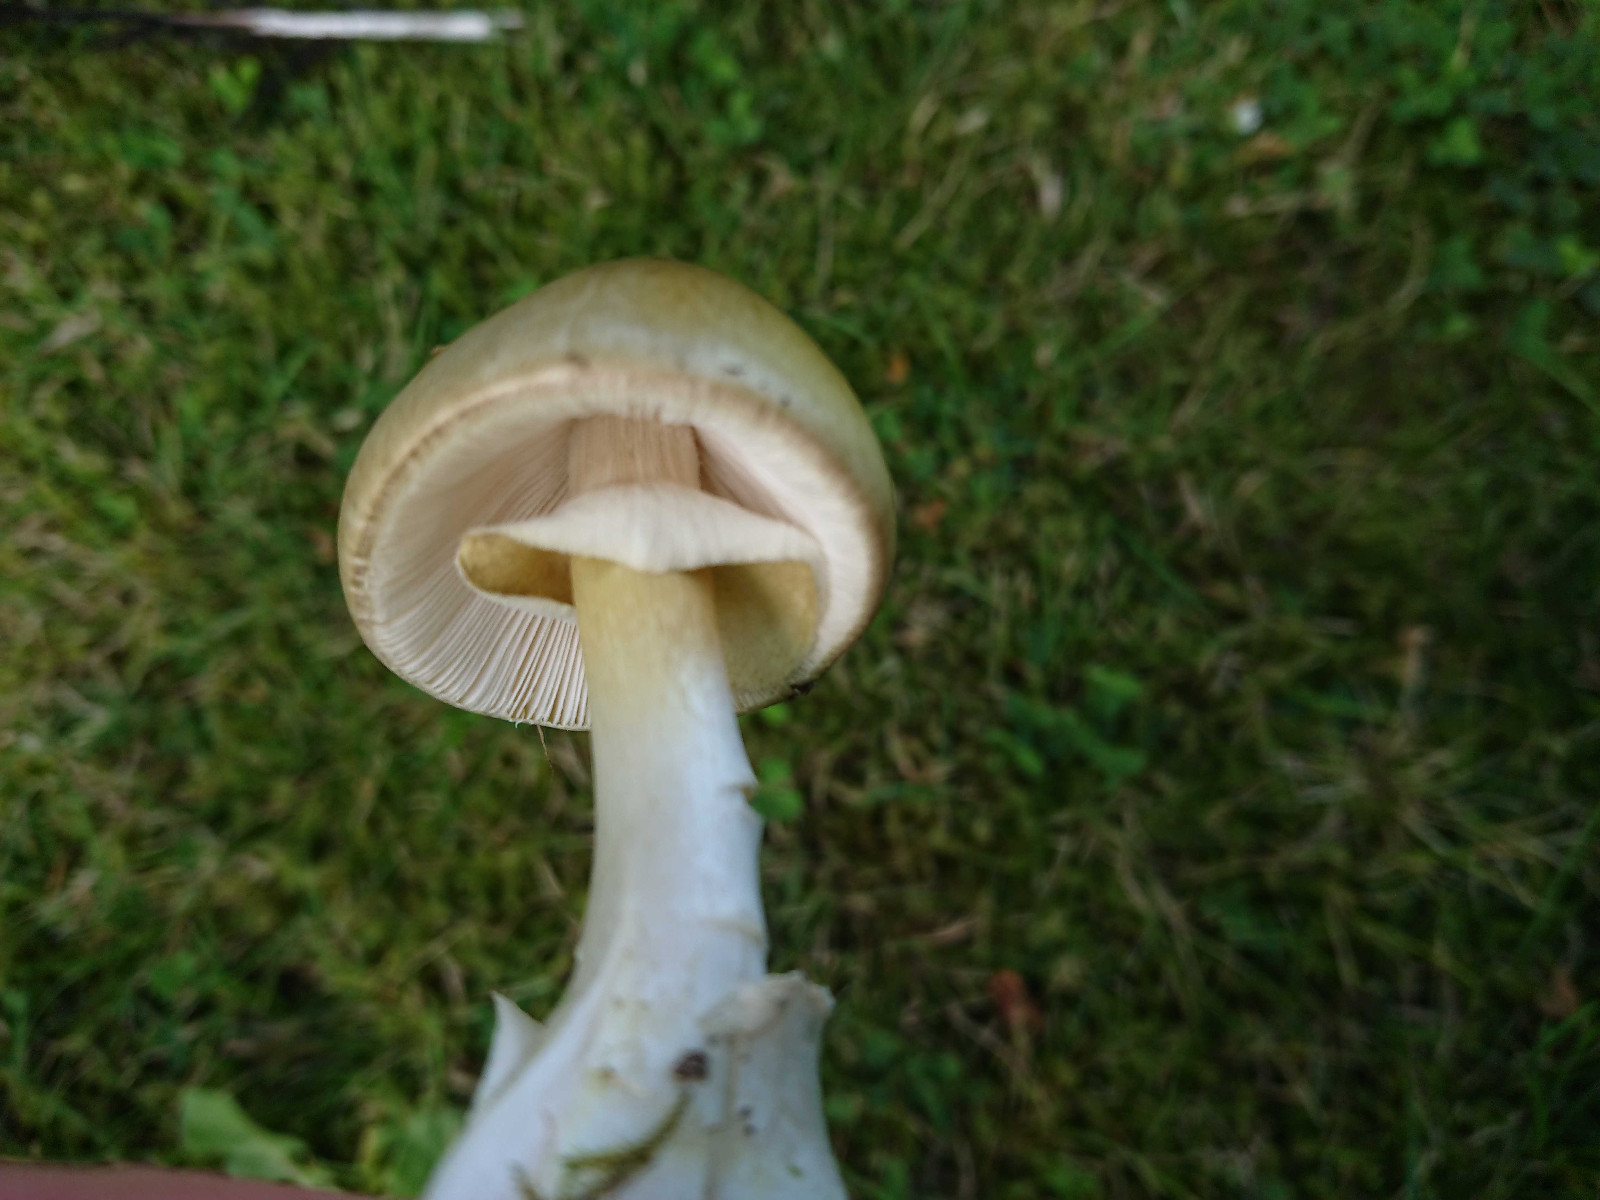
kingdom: Fungi
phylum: Basidiomycota
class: Agaricomycetes
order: Agaricales
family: Amanitaceae
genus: Amanita
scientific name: Amanita phalloides
